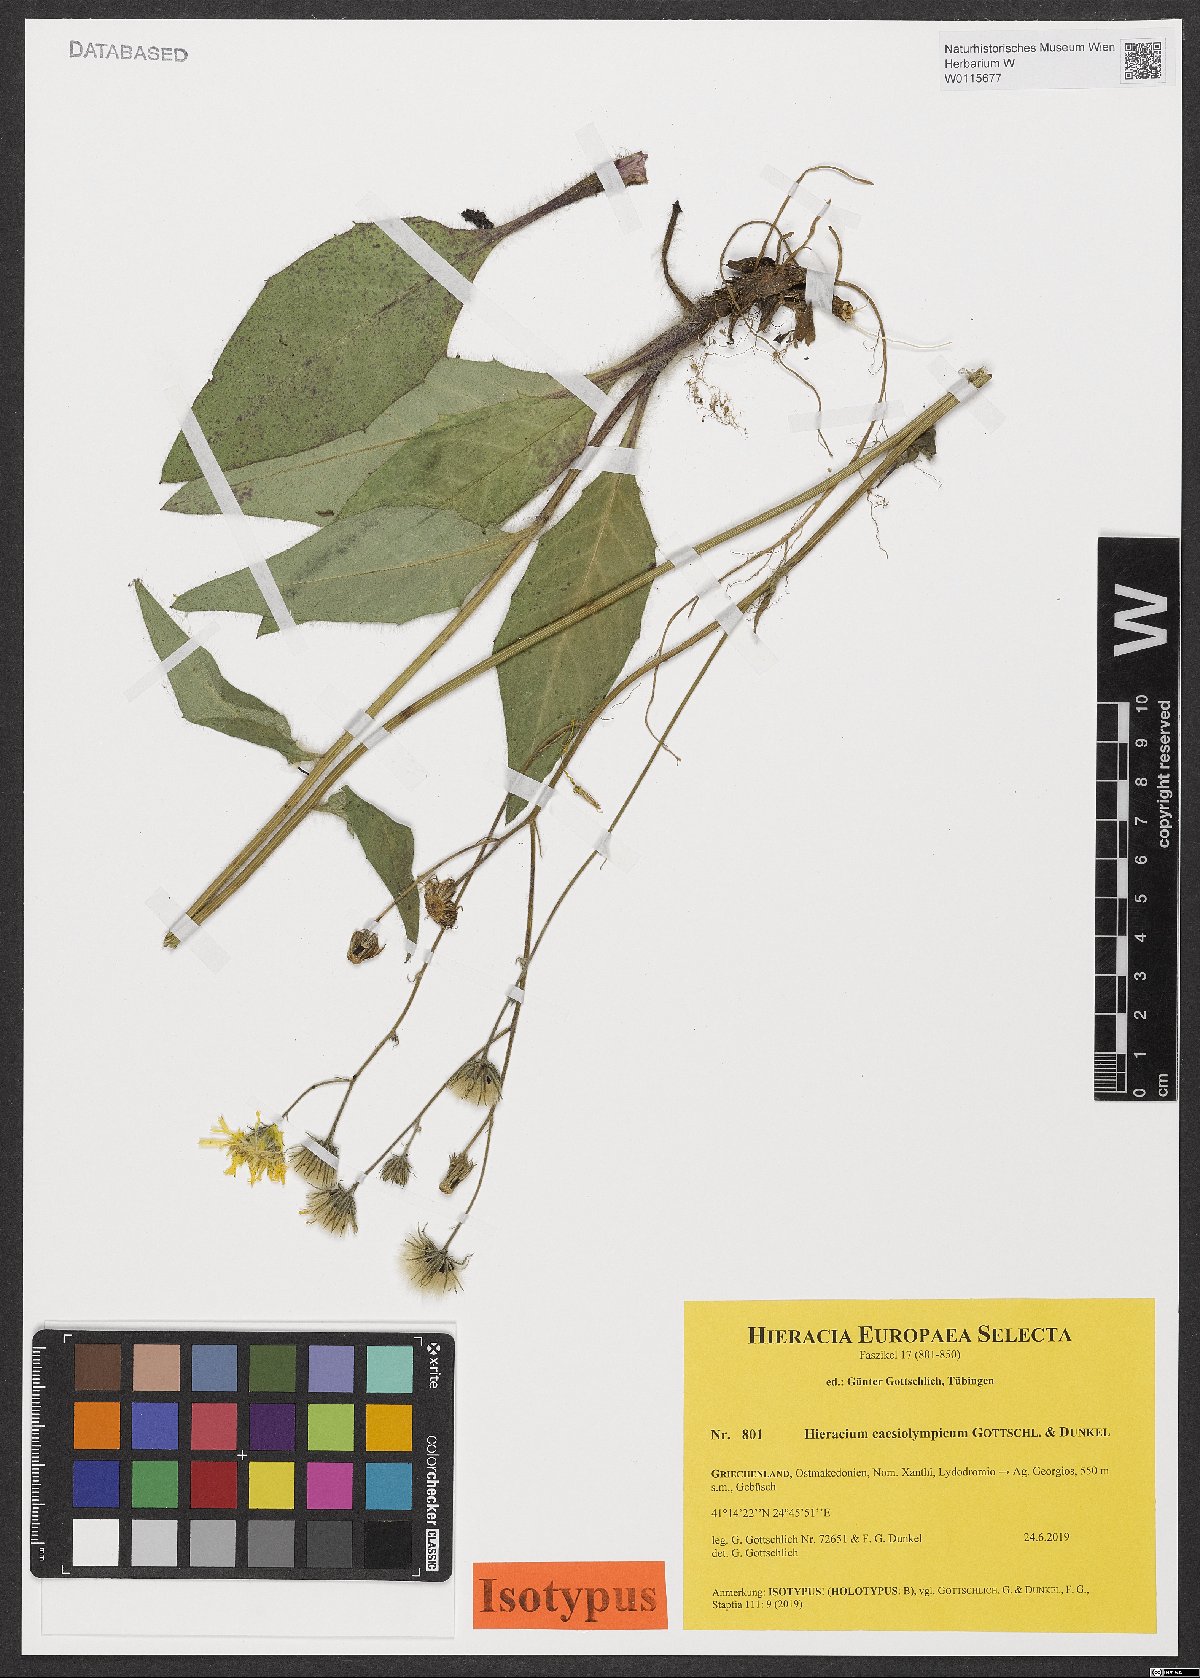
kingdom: Plantae
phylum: Tracheophyta
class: Magnoliopsida
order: Asterales
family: Asteraceae
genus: Hieracium
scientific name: Hieracium caesiolympicum
